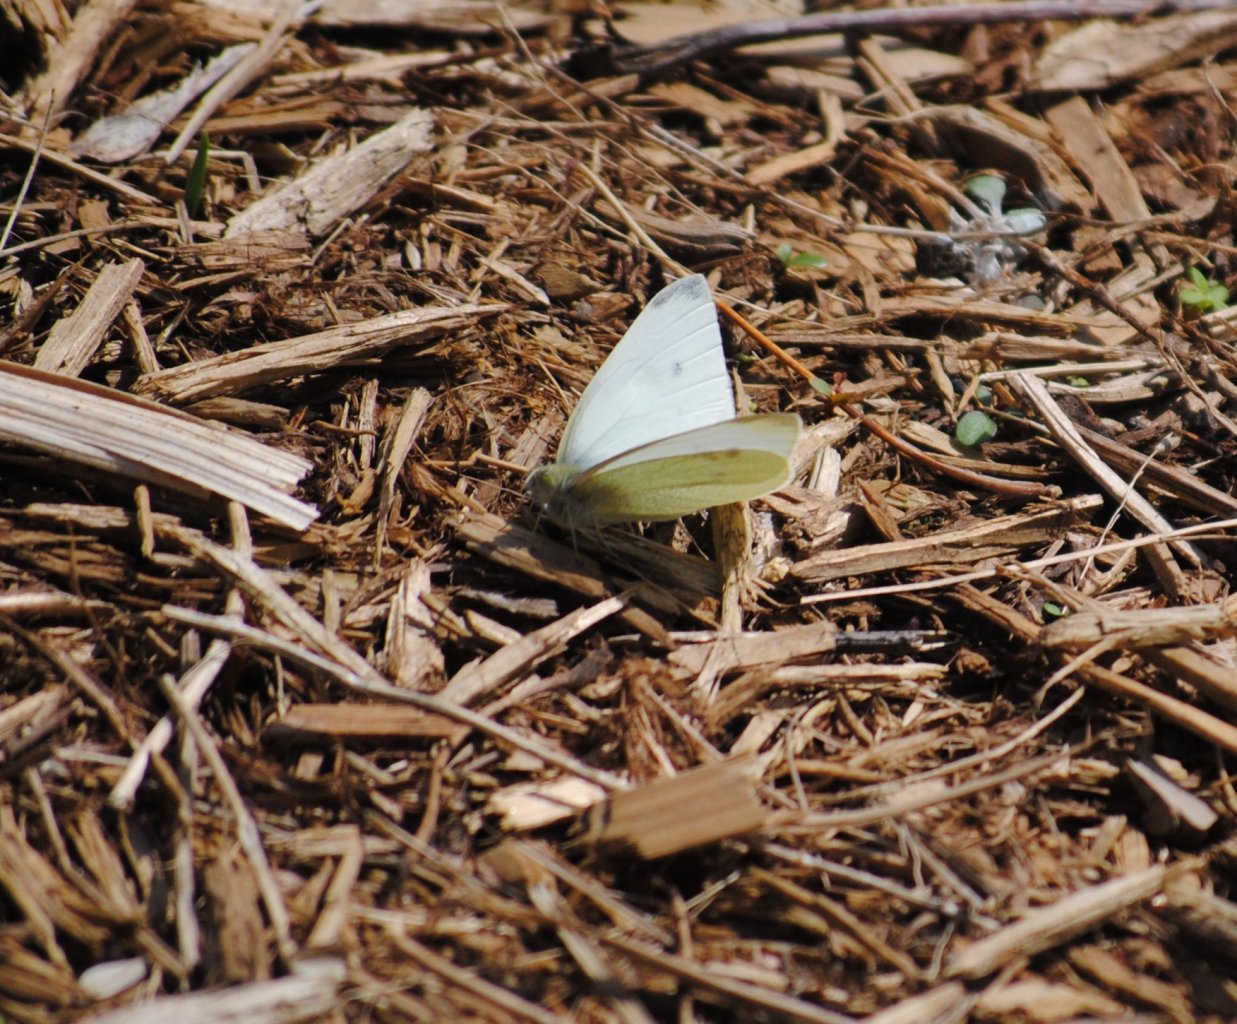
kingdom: Animalia
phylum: Arthropoda
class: Insecta
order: Lepidoptera
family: Pieridae
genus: Pieris
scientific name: Pieris rapae
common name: Cabbage White
